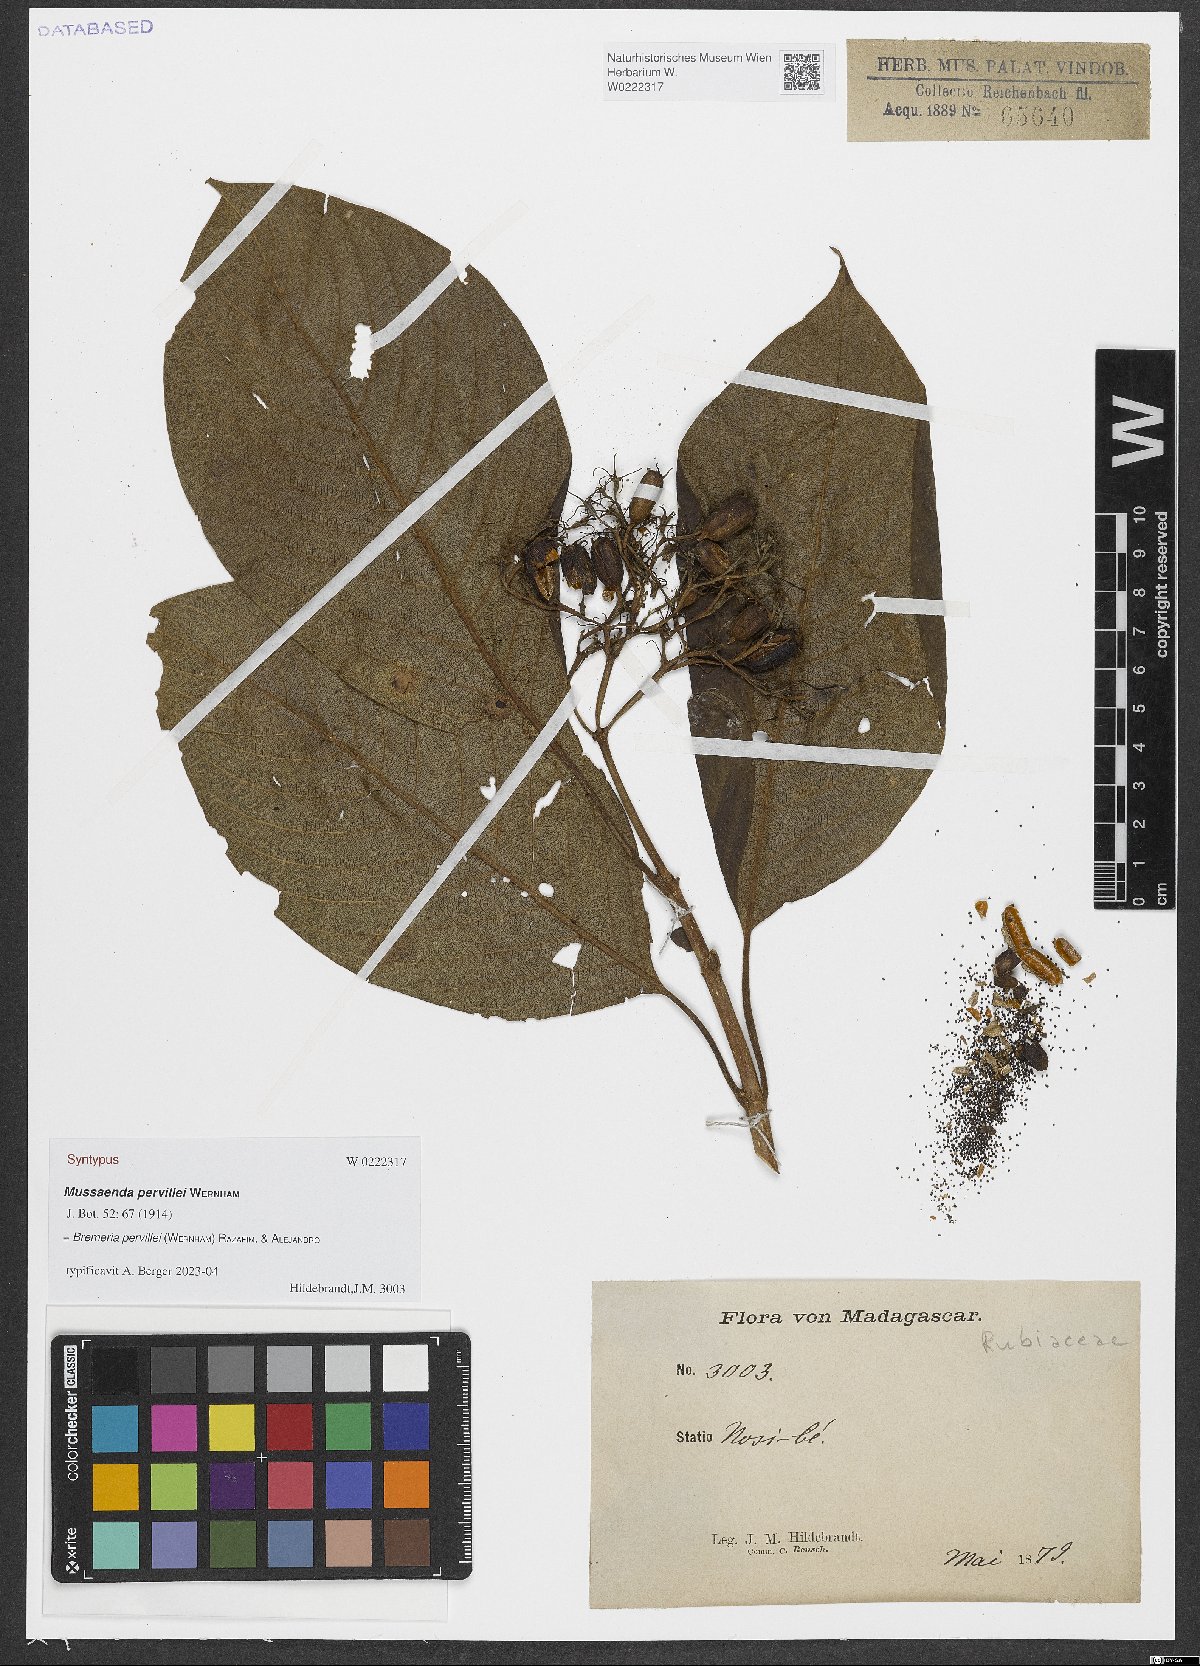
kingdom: Plantae
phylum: Tracheophyta
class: Magnoliopsida
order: Gentianales
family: Rubiaceae
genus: Bremeria
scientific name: Bremeria pervillei
